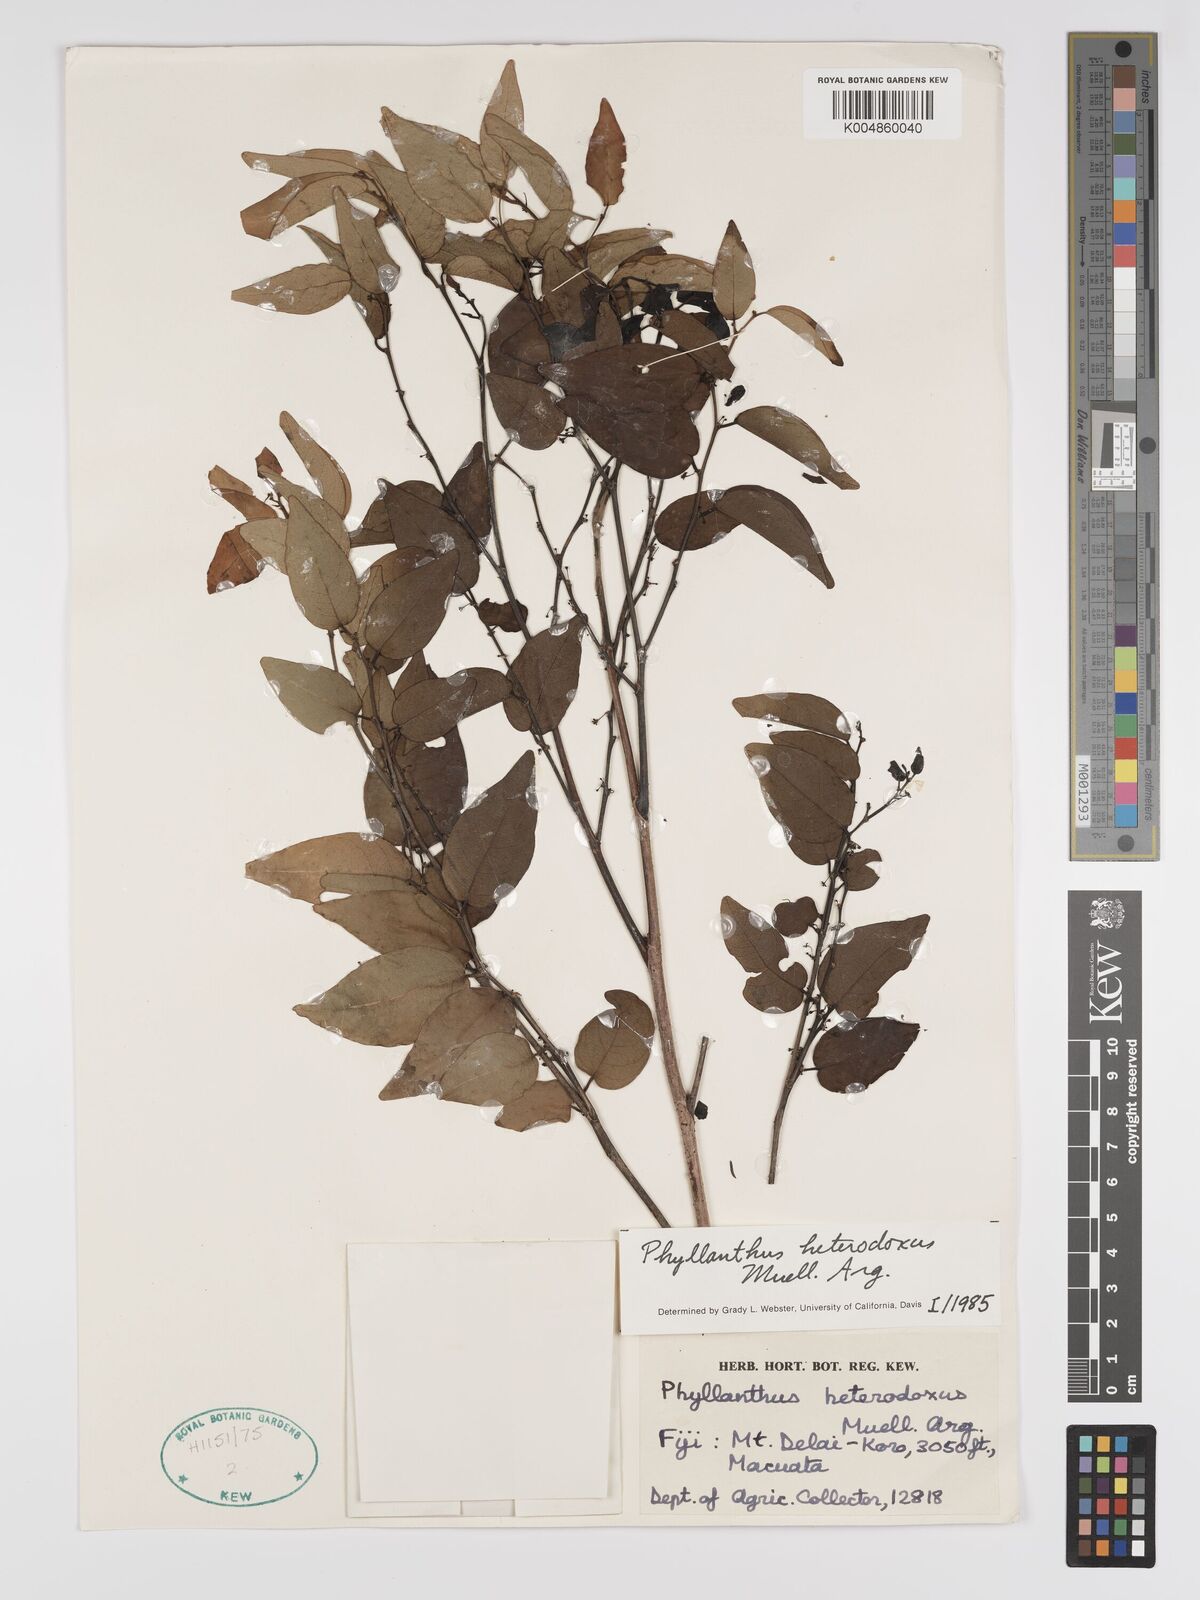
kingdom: Plantae
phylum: Tracheophyta
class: Magnoliopsida
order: Malpighiales
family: Phyllanthaceae
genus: Glochidion
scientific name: Glochidion heterodoxum
